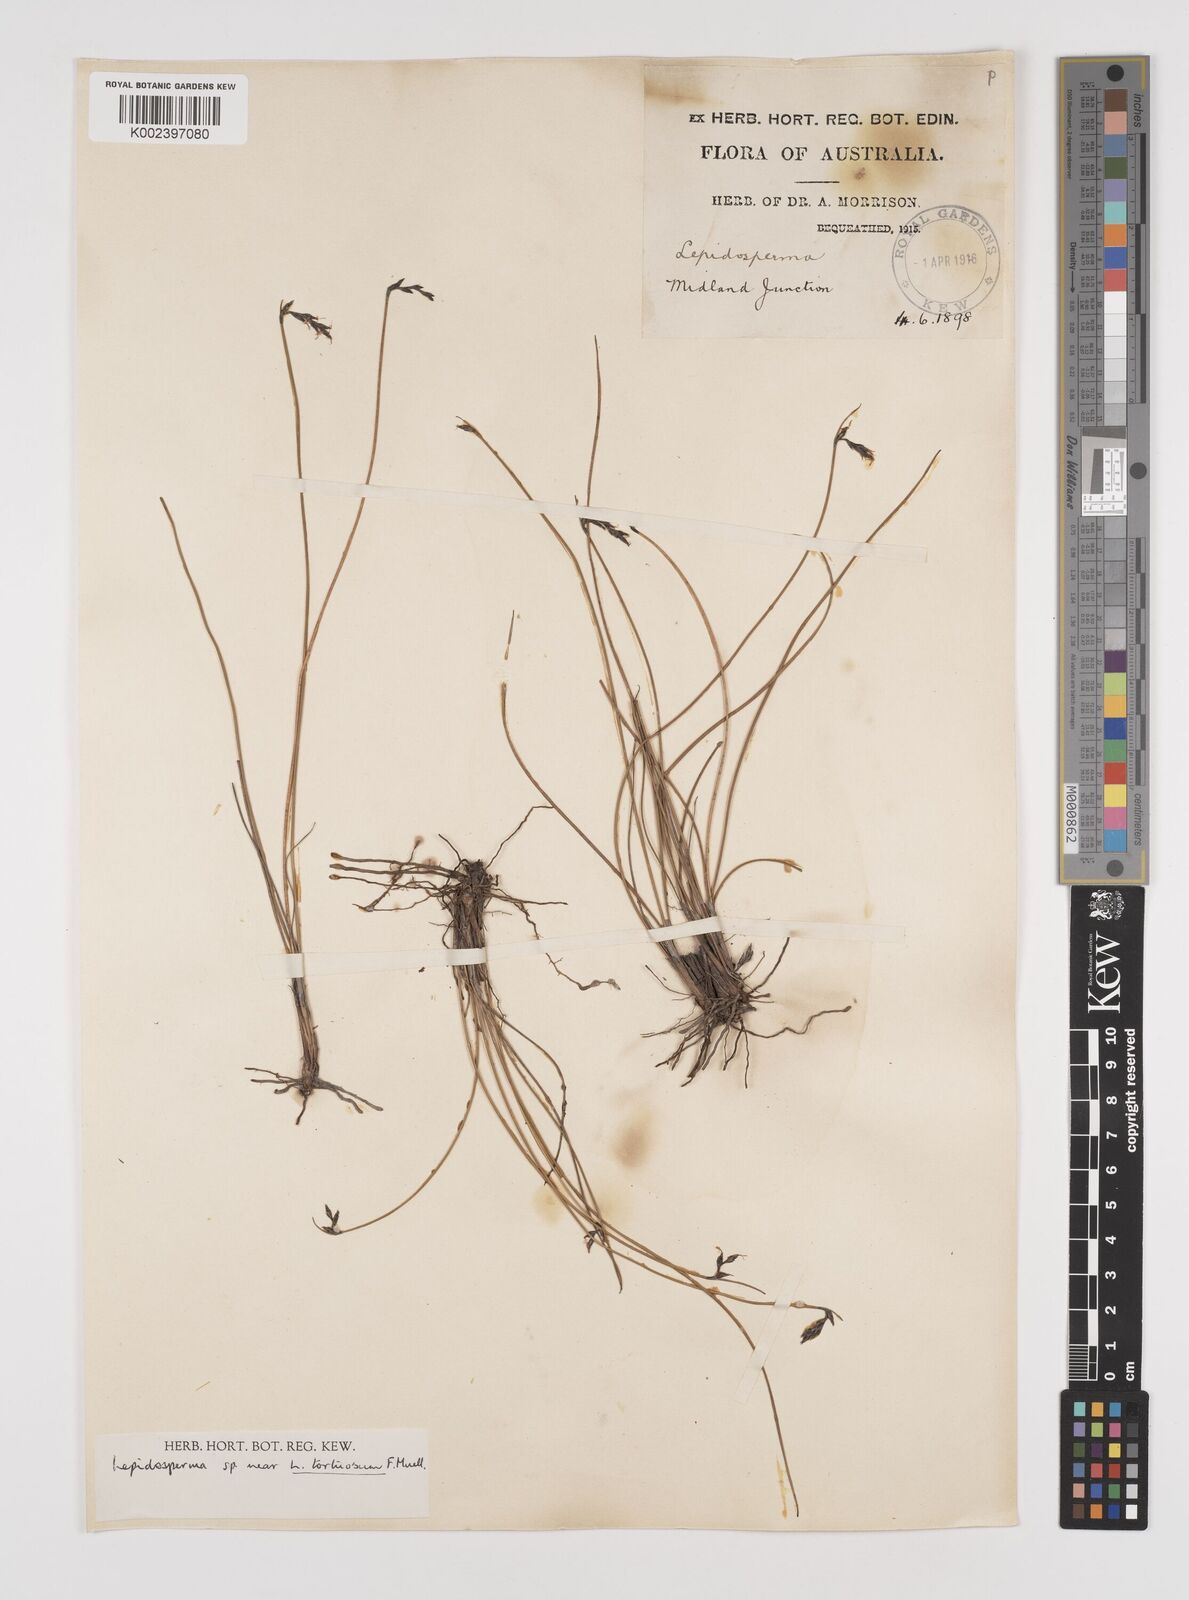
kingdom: Plantae
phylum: Tracheophyta
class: Liliopsida
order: Poales
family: Cyperaceae
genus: Lepidosperma
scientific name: Lepidosperma tortuosum
